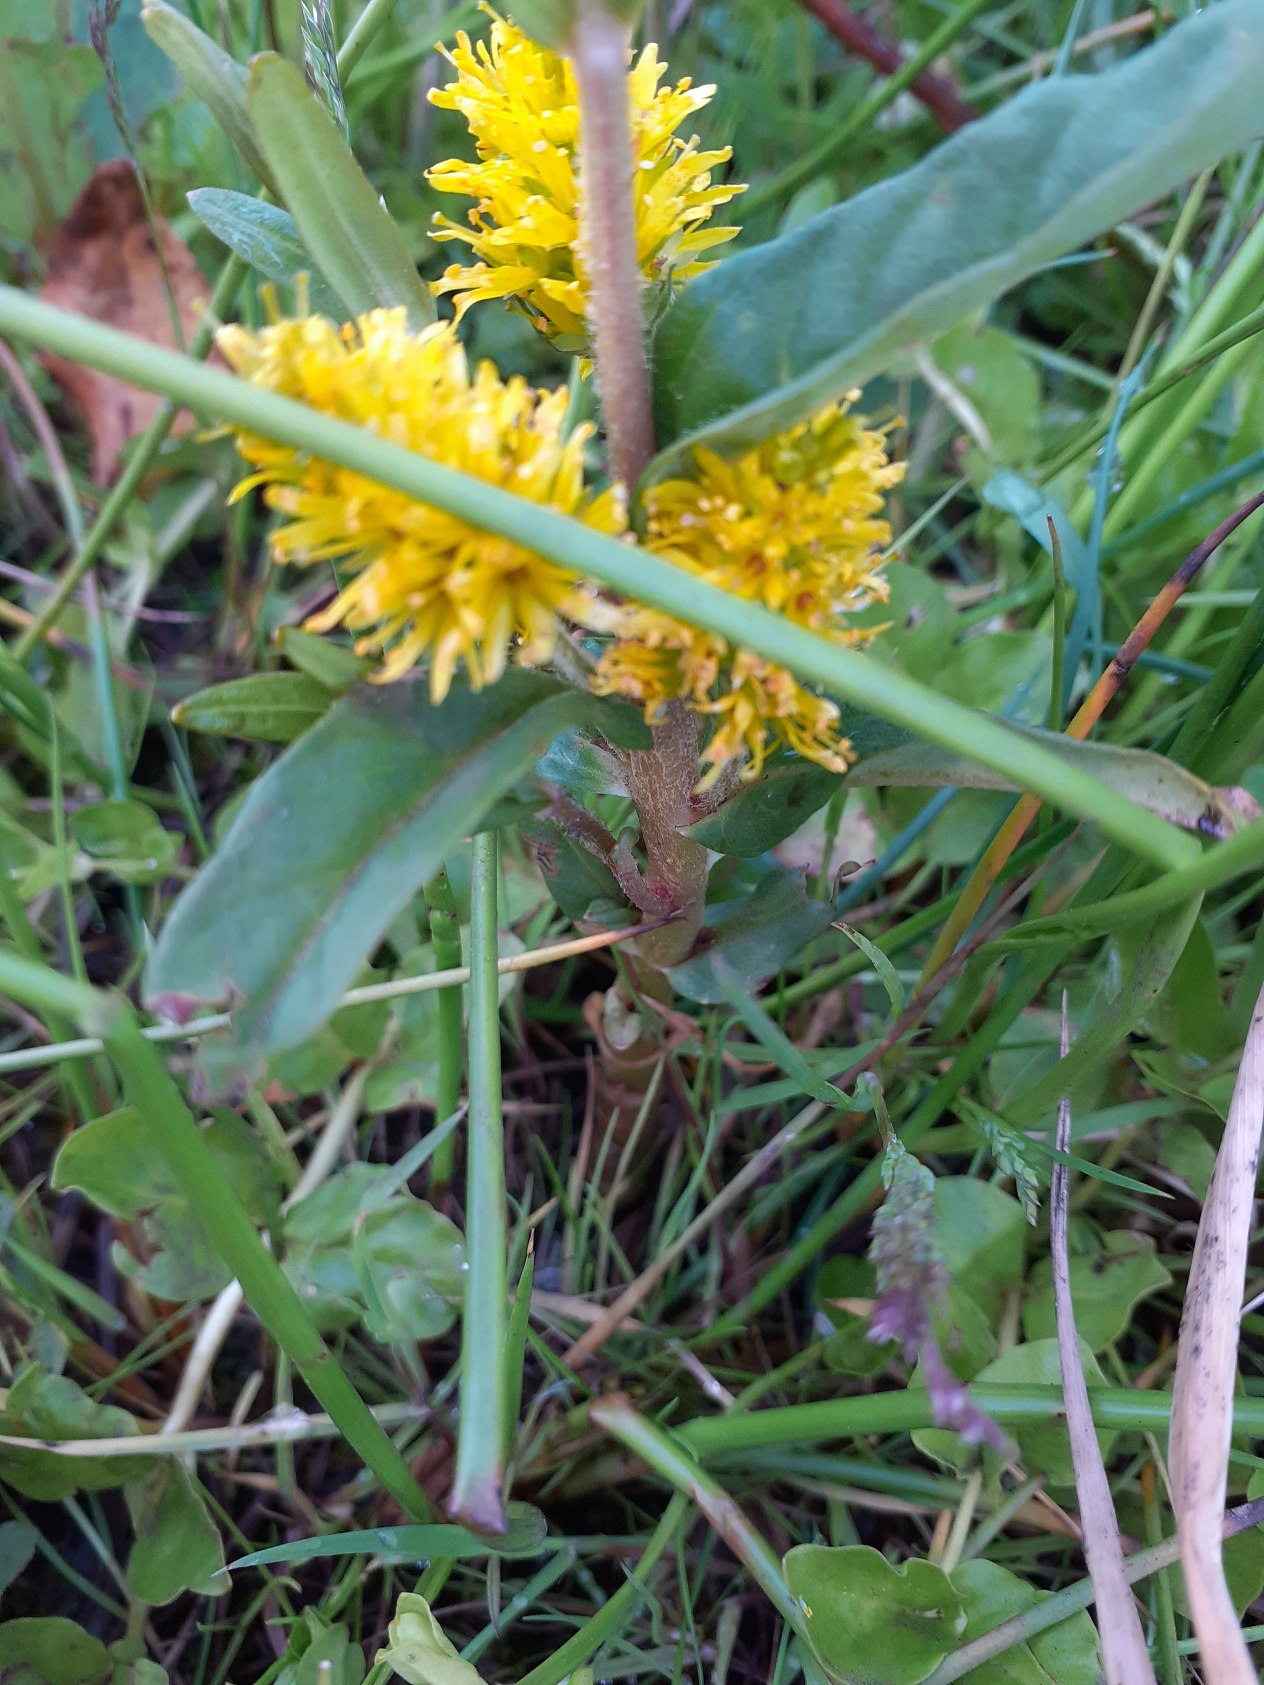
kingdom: Plantae
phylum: Tracheophyta
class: Magnoliopsida
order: Ericales
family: Primulaceae
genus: Lysimachia
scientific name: Lysimachia thyrsiflora
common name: Dusk-fredløs
